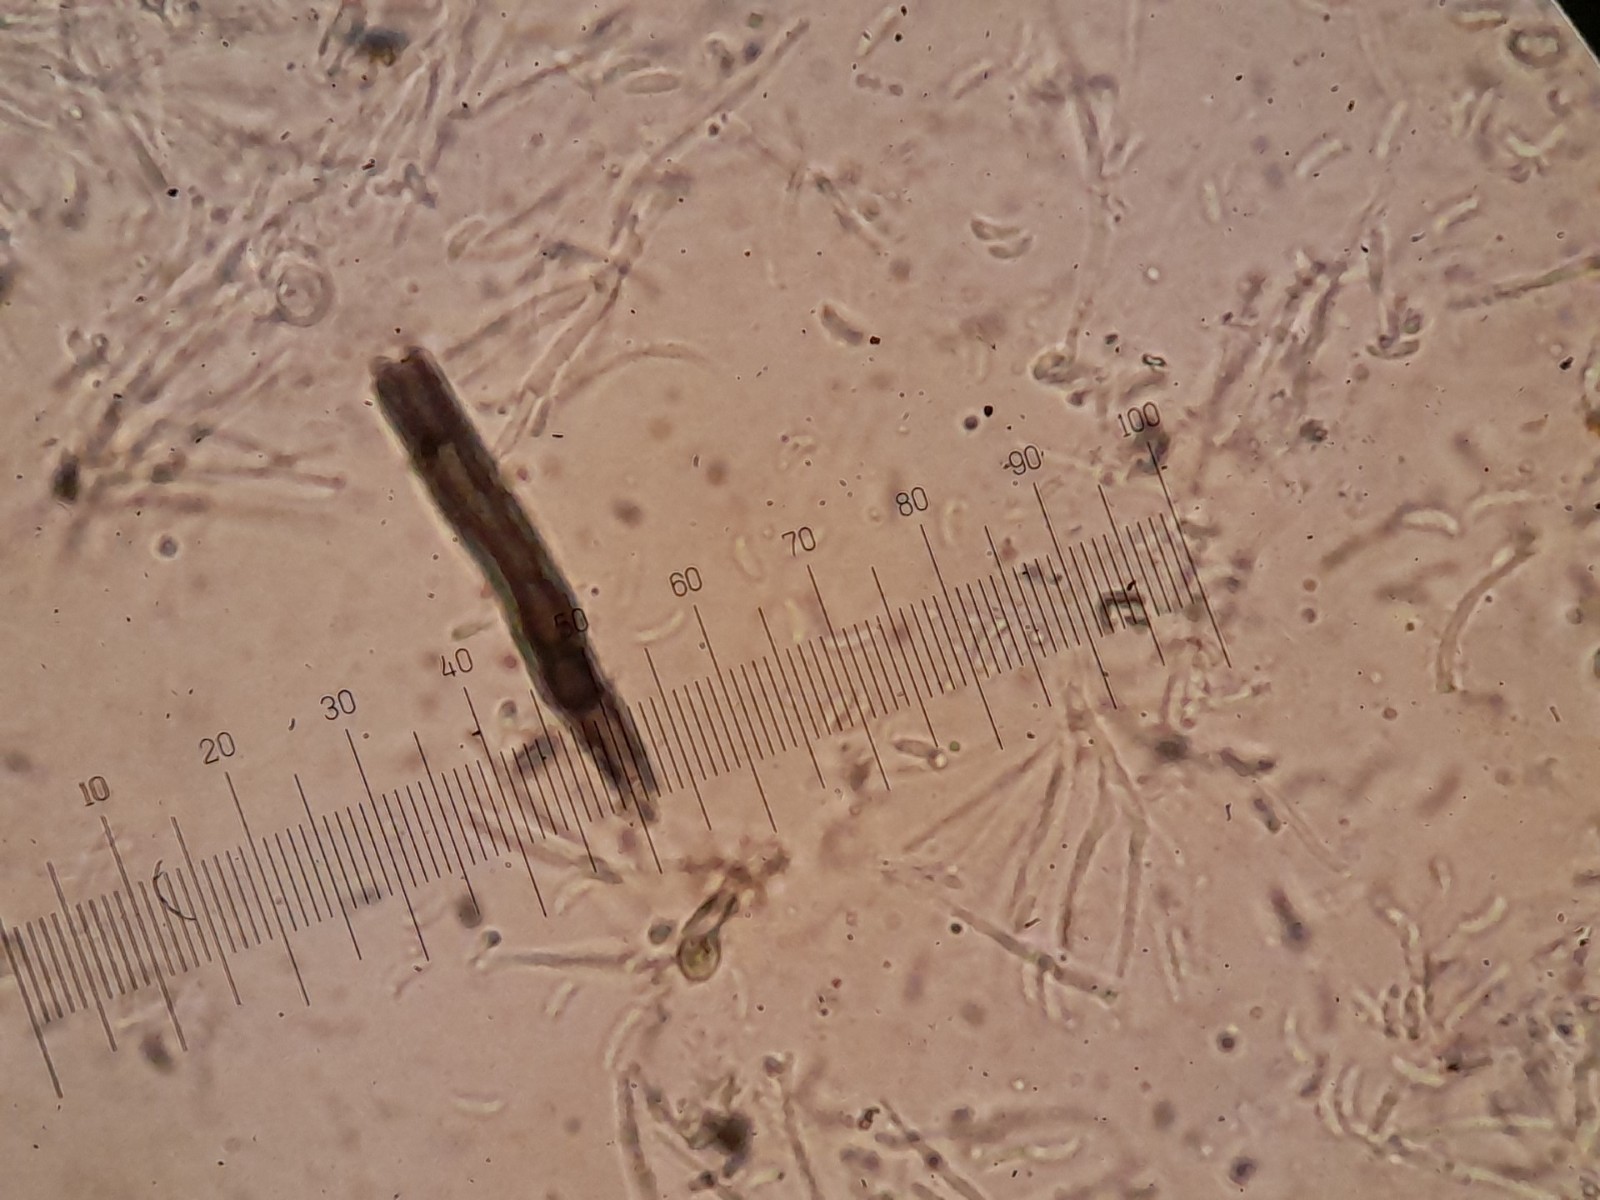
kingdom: Fungi
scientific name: Fungi
